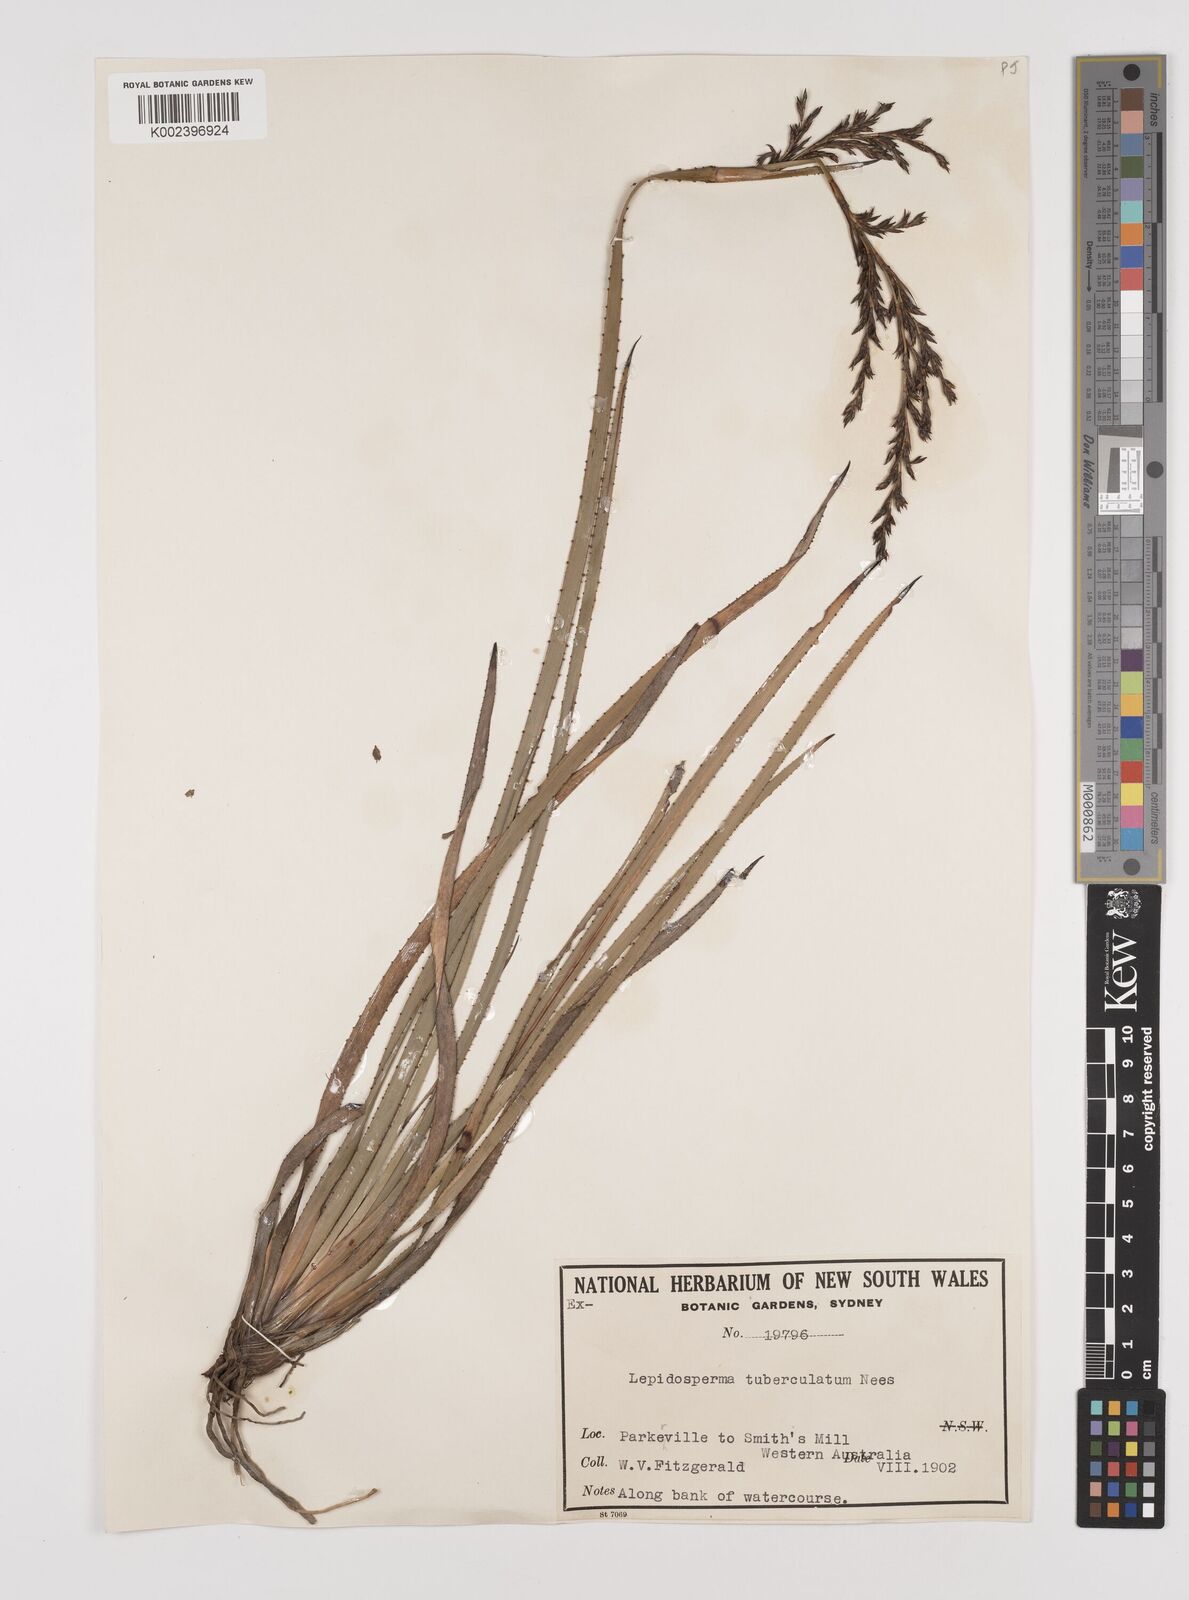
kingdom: Plantae
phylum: Tracheophyta
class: Liliopsida
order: Poales
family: Cyperaceae
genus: Lepidosperma
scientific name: Lepidosperma tuberculatum
